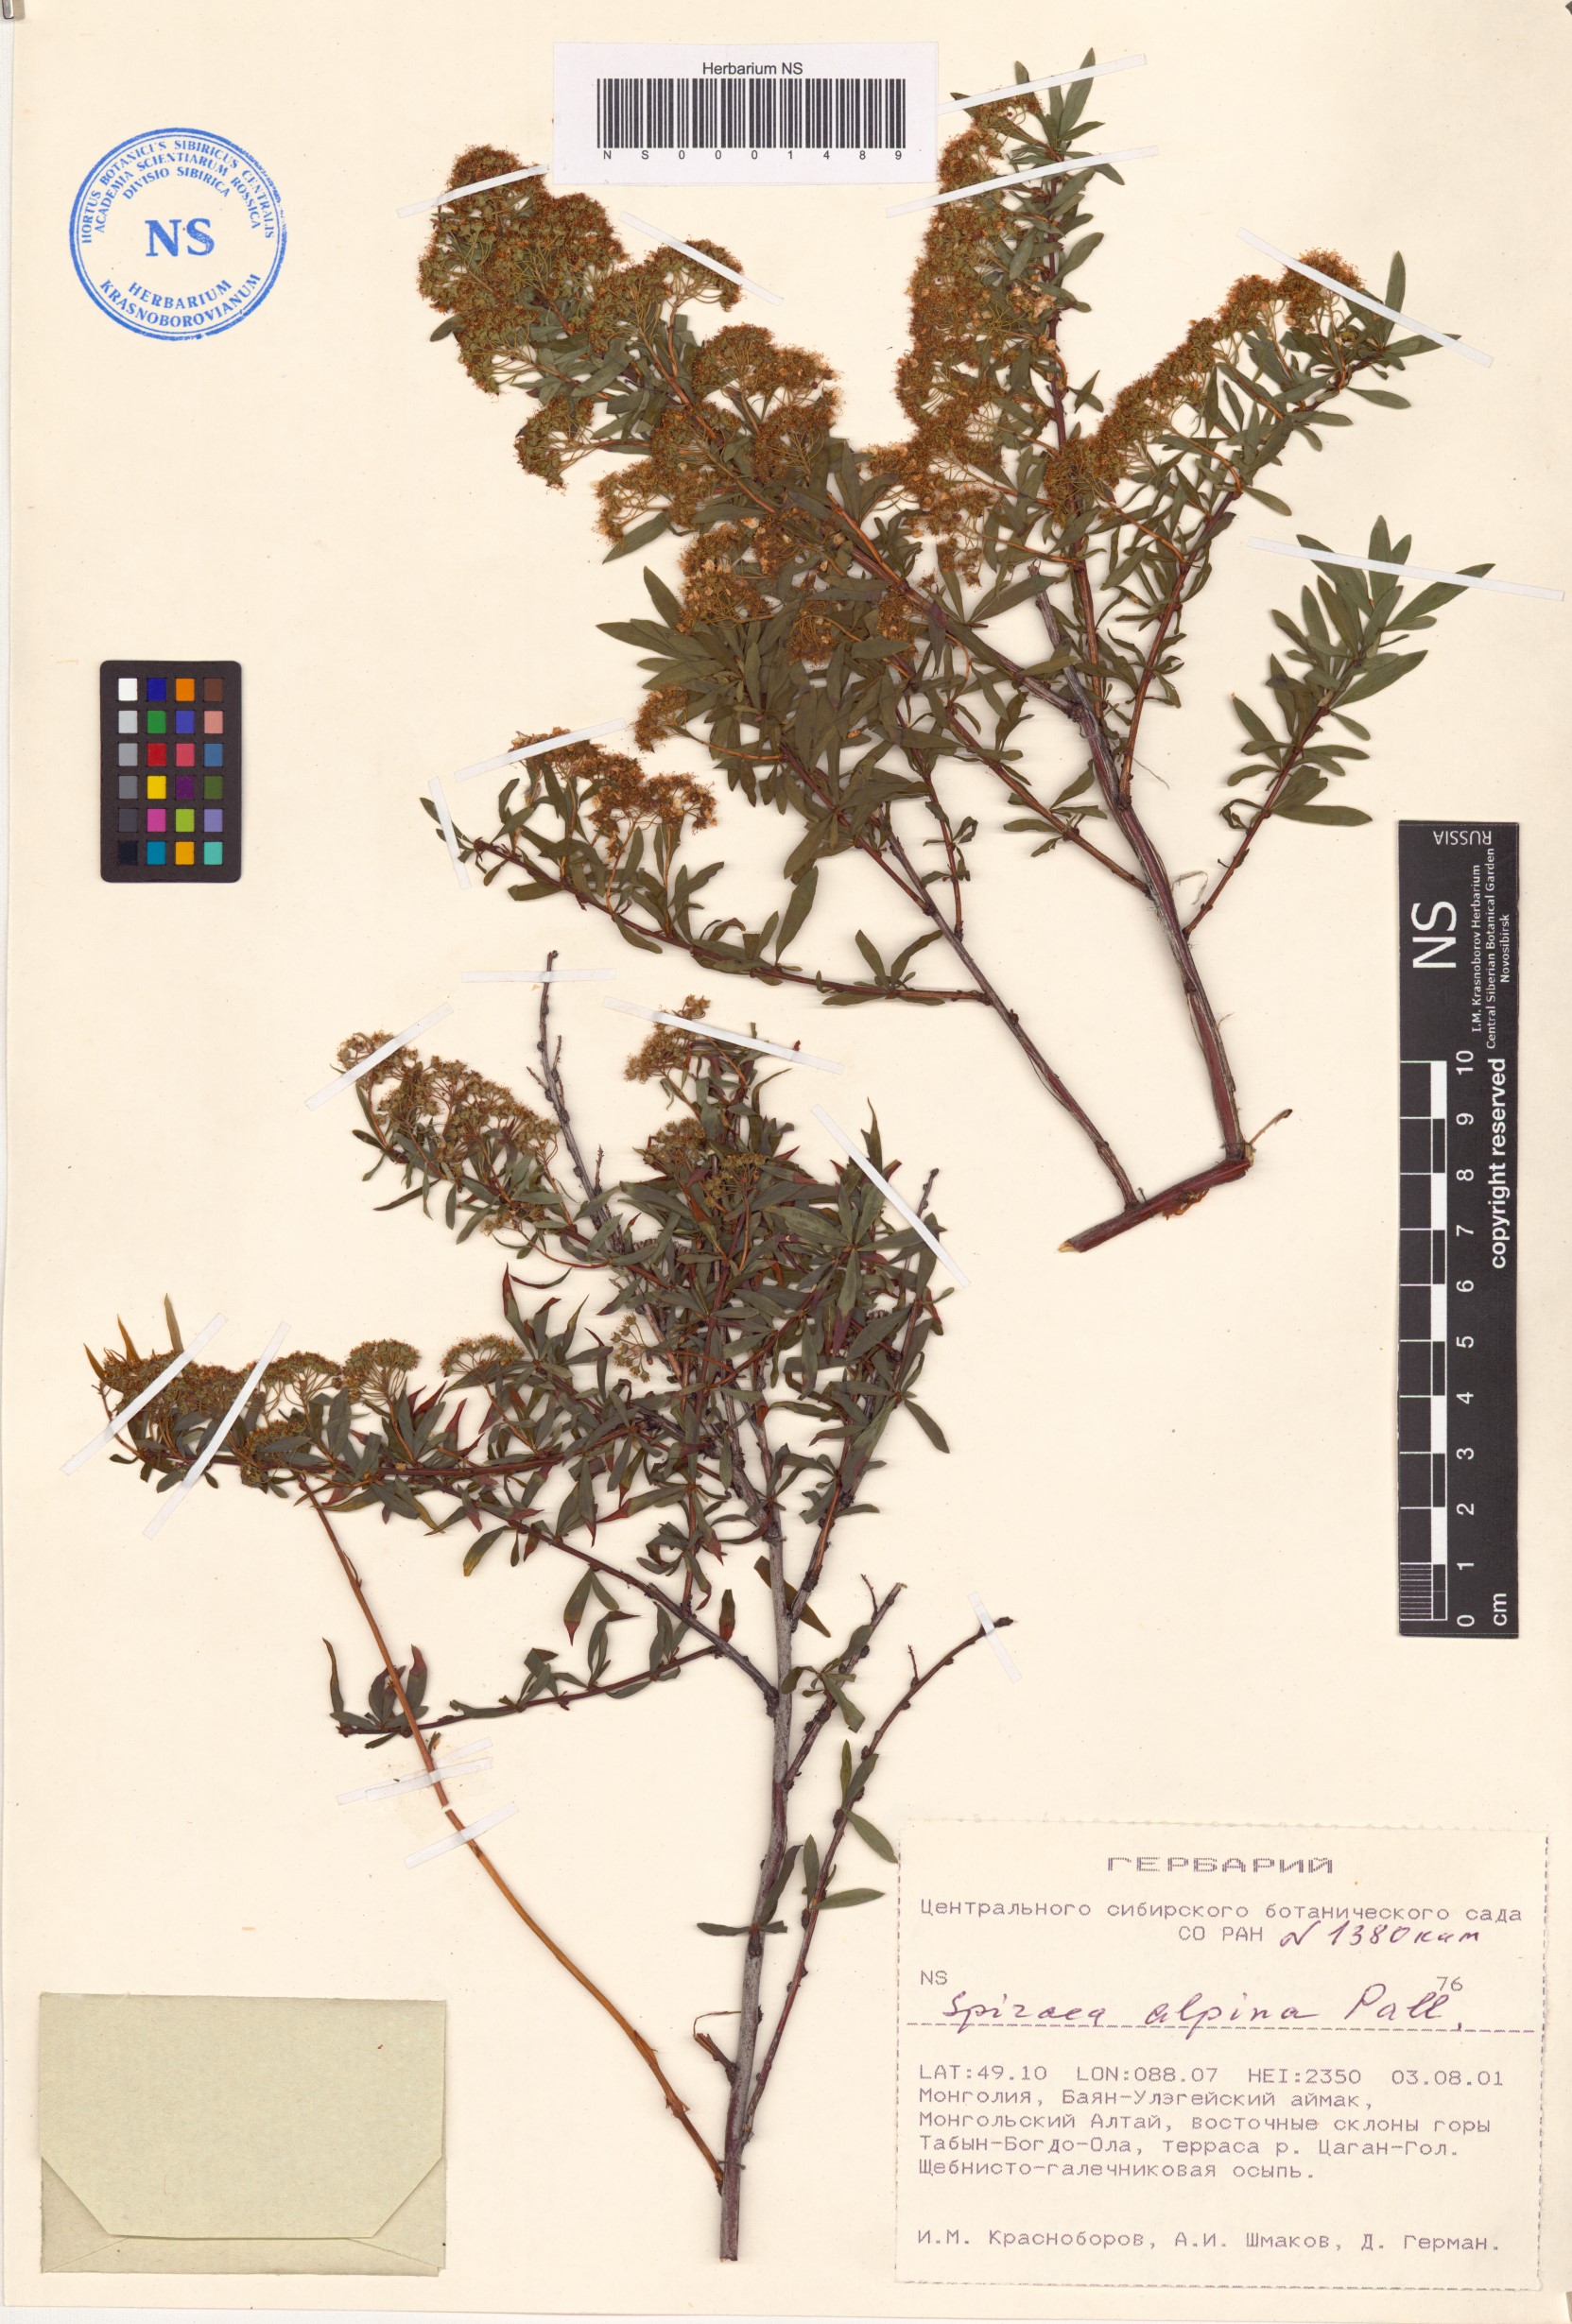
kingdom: Plantae
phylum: Tracheophyta
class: Magnoliopsida
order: Rosales
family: Rosaceae
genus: Spiraea
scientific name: Spiraea alpina
